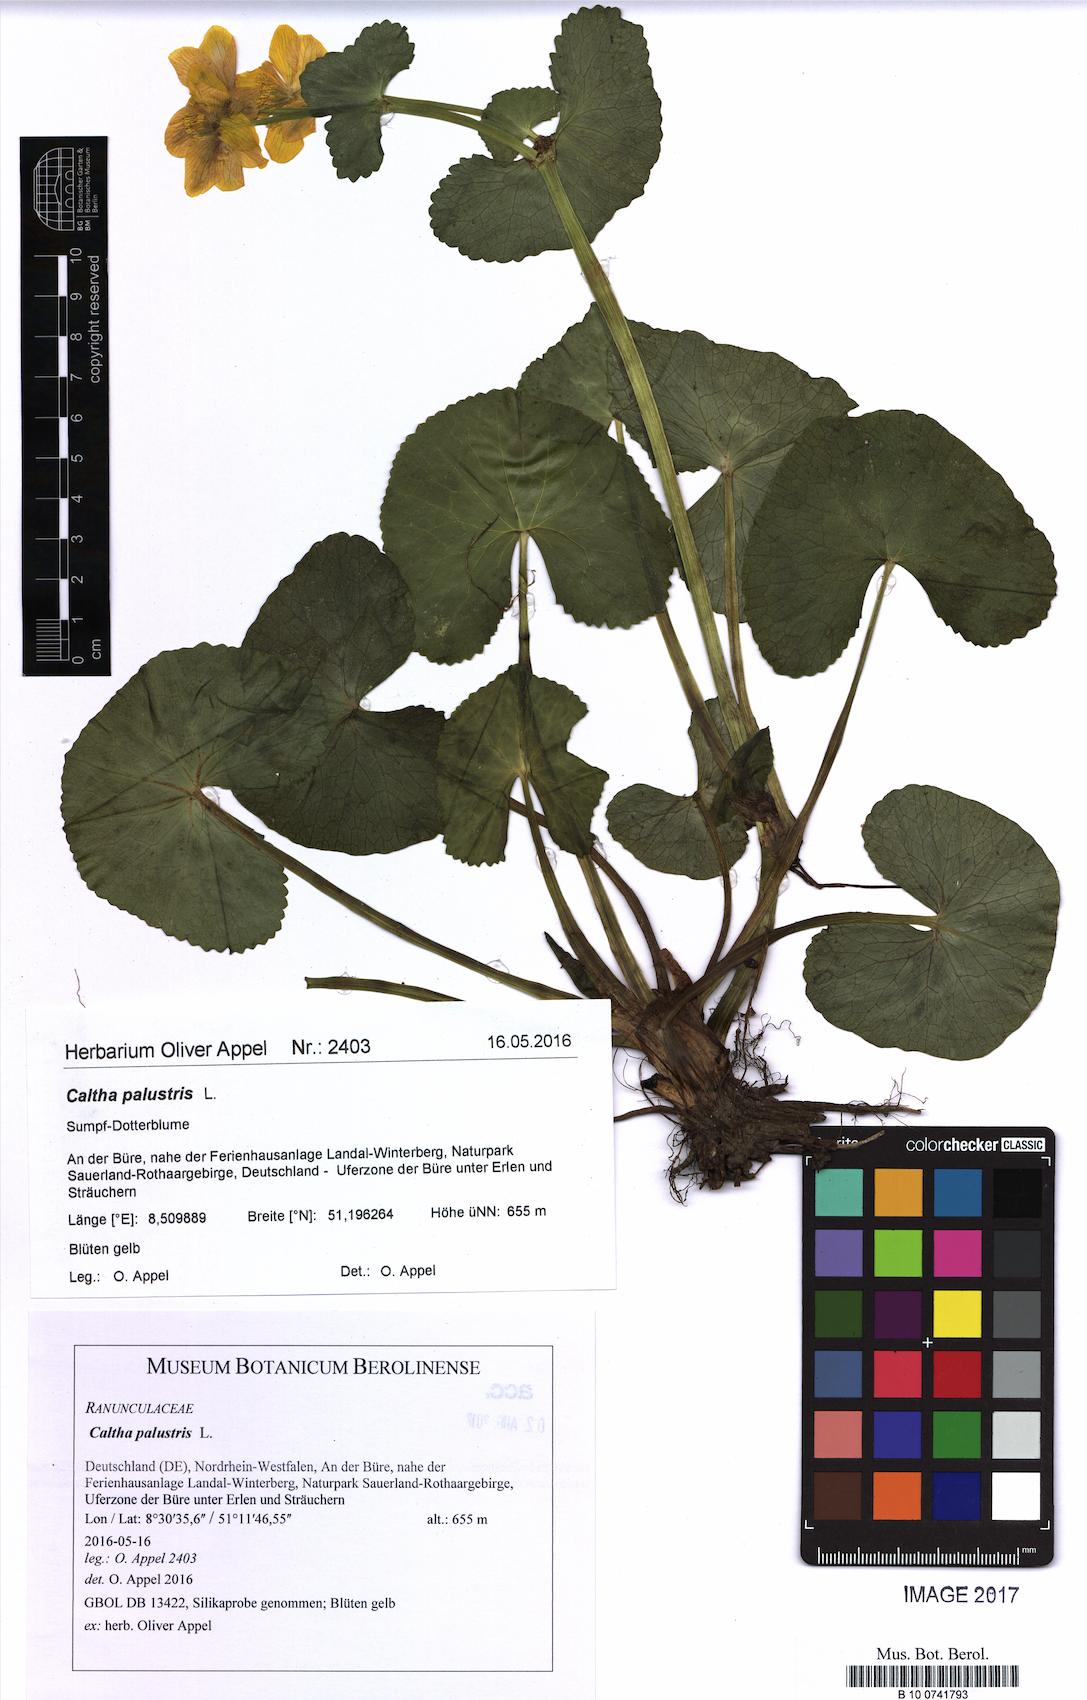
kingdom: Plantae
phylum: Tracheophyta
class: Magnoliopsida
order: Ranunculales
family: Ranunculaceae
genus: Caltha
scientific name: Caltha palustris
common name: Marsh marigold
